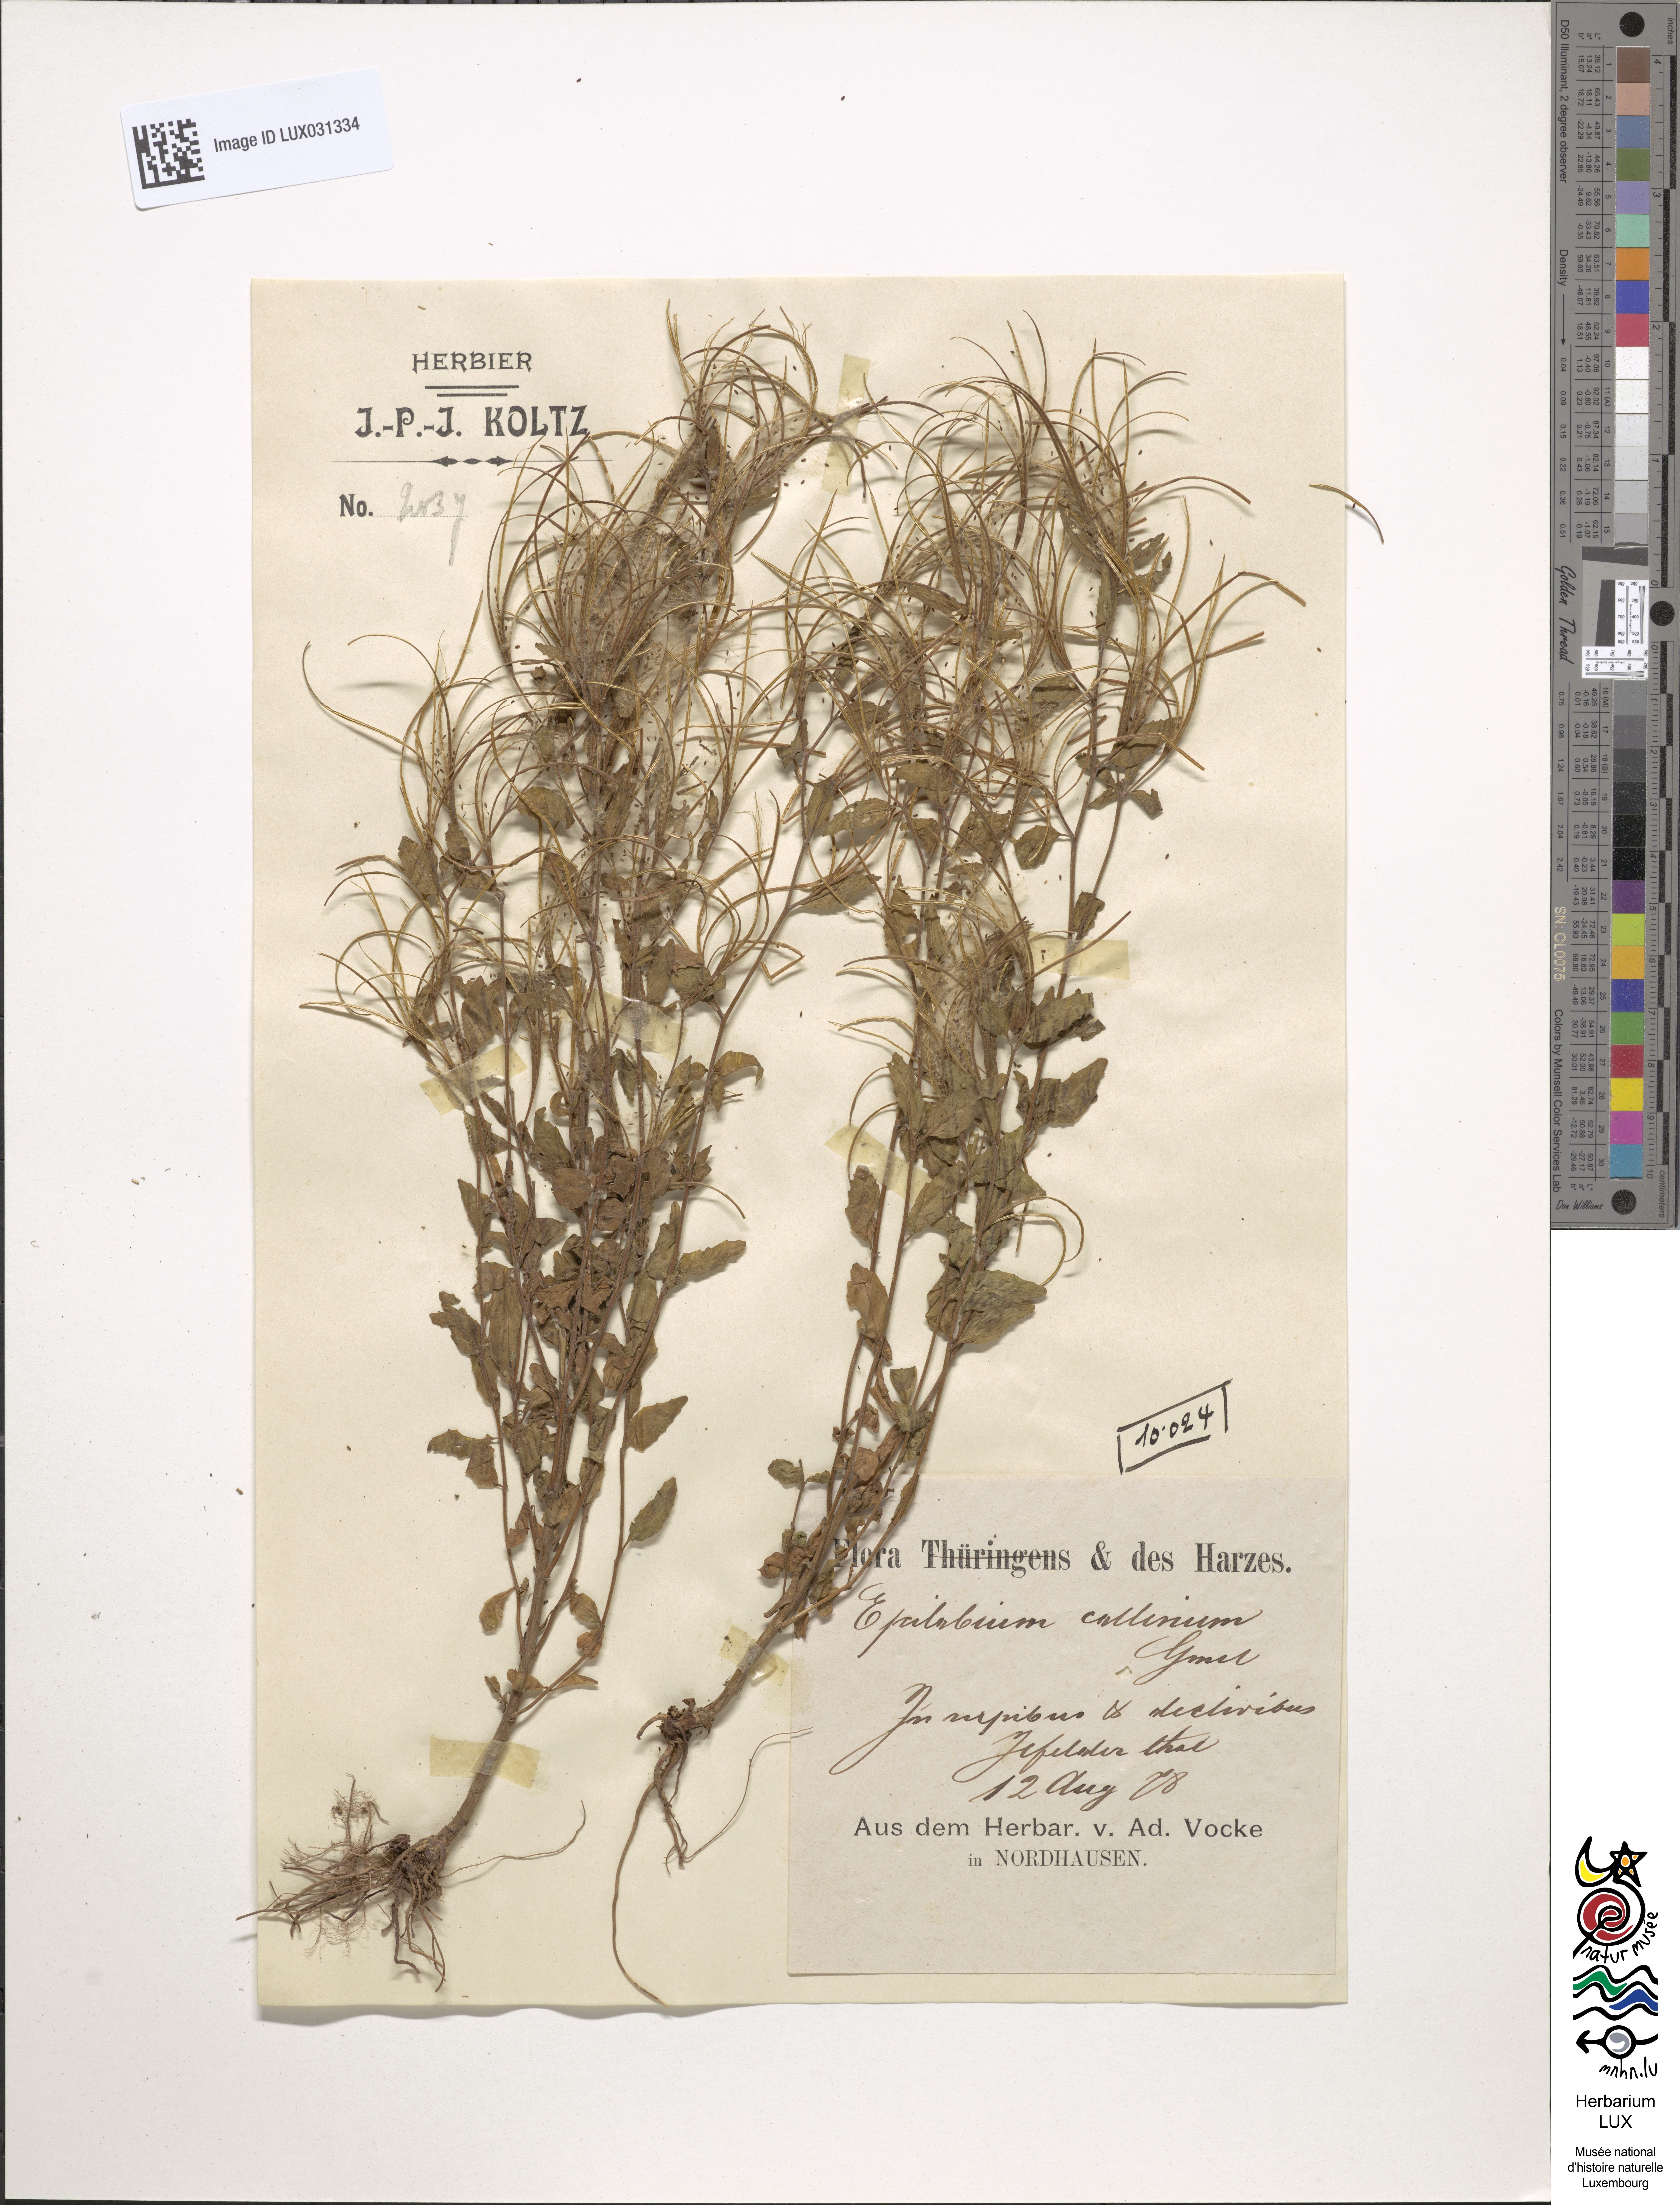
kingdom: Plantae
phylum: Tracheophyta
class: Magnoliopsida
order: Myrtales
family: Onagraceae
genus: Epilobium
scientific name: Epilobium collinum
